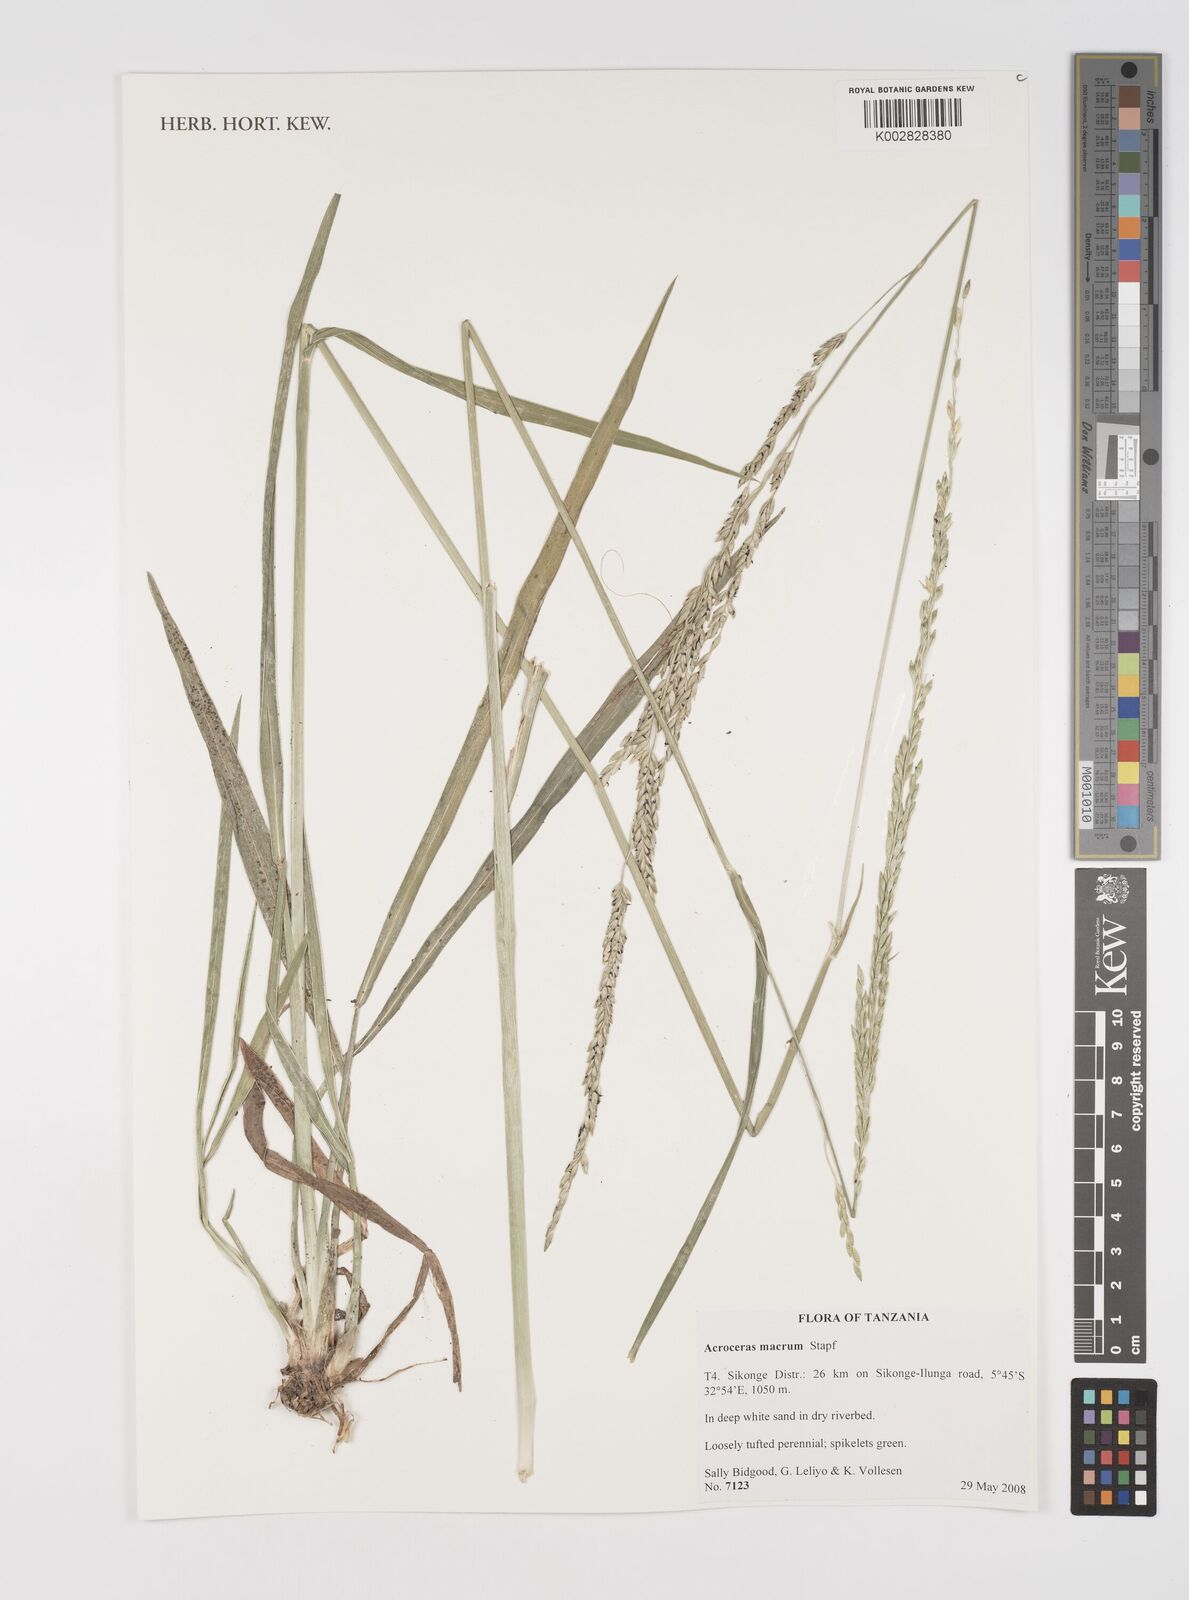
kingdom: Plantae
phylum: Tracheophyta
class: Liliopsida
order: Poales
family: Poaceae
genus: Acroceras
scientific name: Acroceras macrum
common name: Nyl grass
